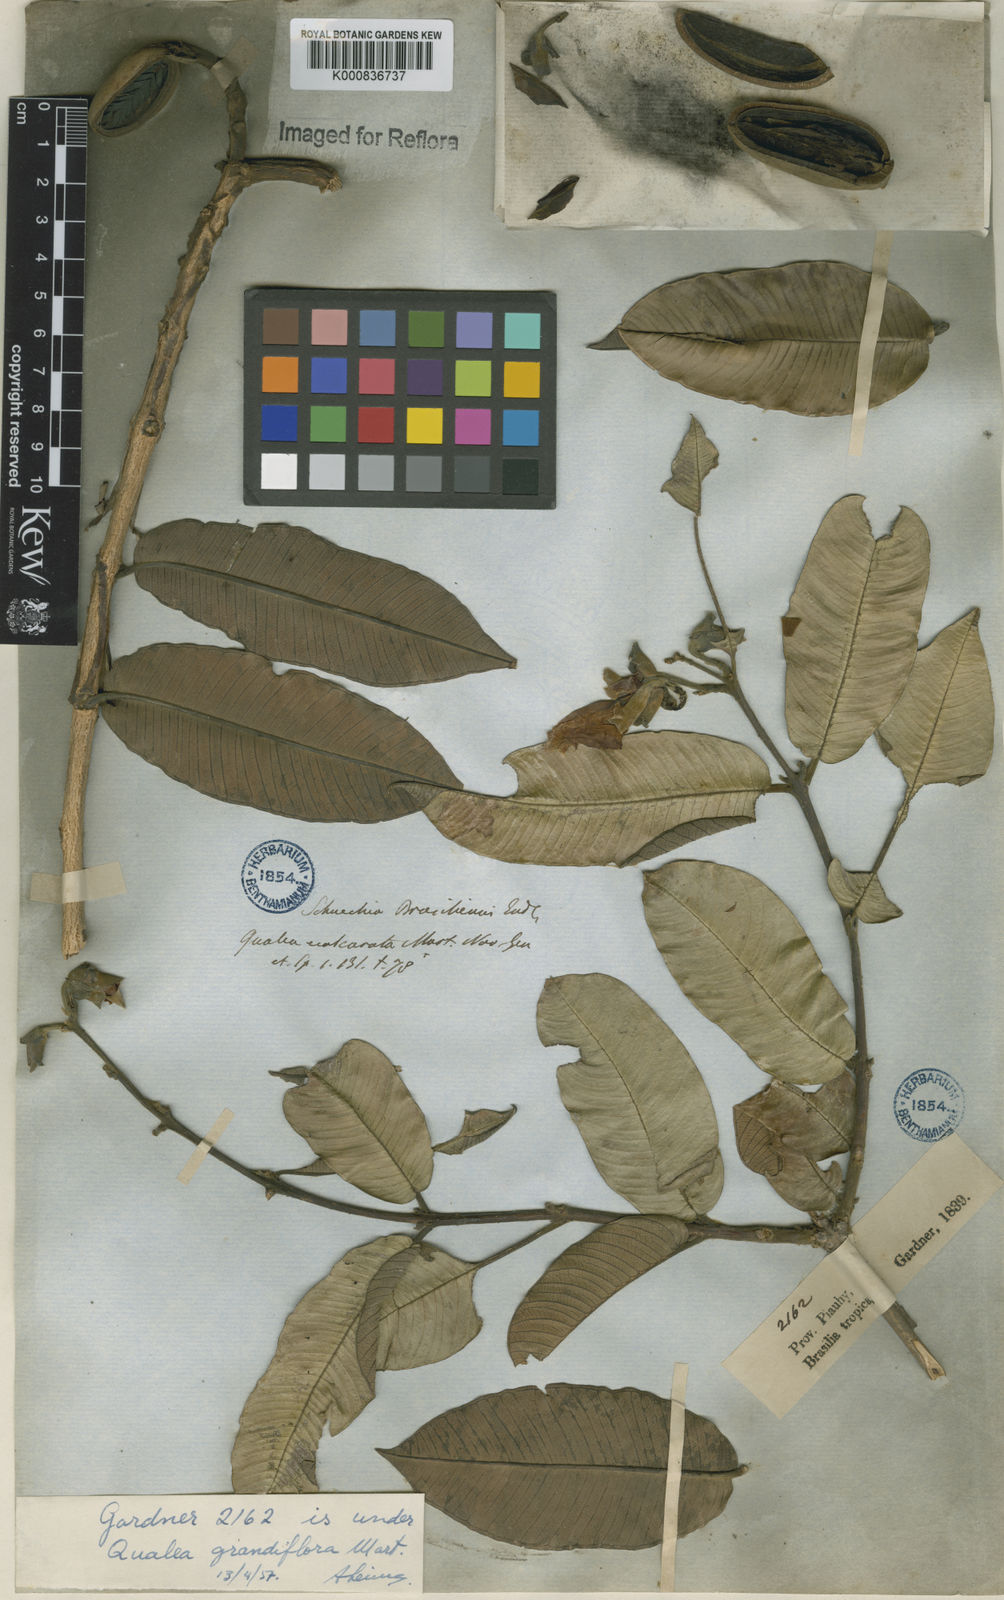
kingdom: Plantae
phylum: Tracheophyta
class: Magnoliopsida
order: Myrtales
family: Vochysiaceae
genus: Qualea
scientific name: Qualea grandiflora
